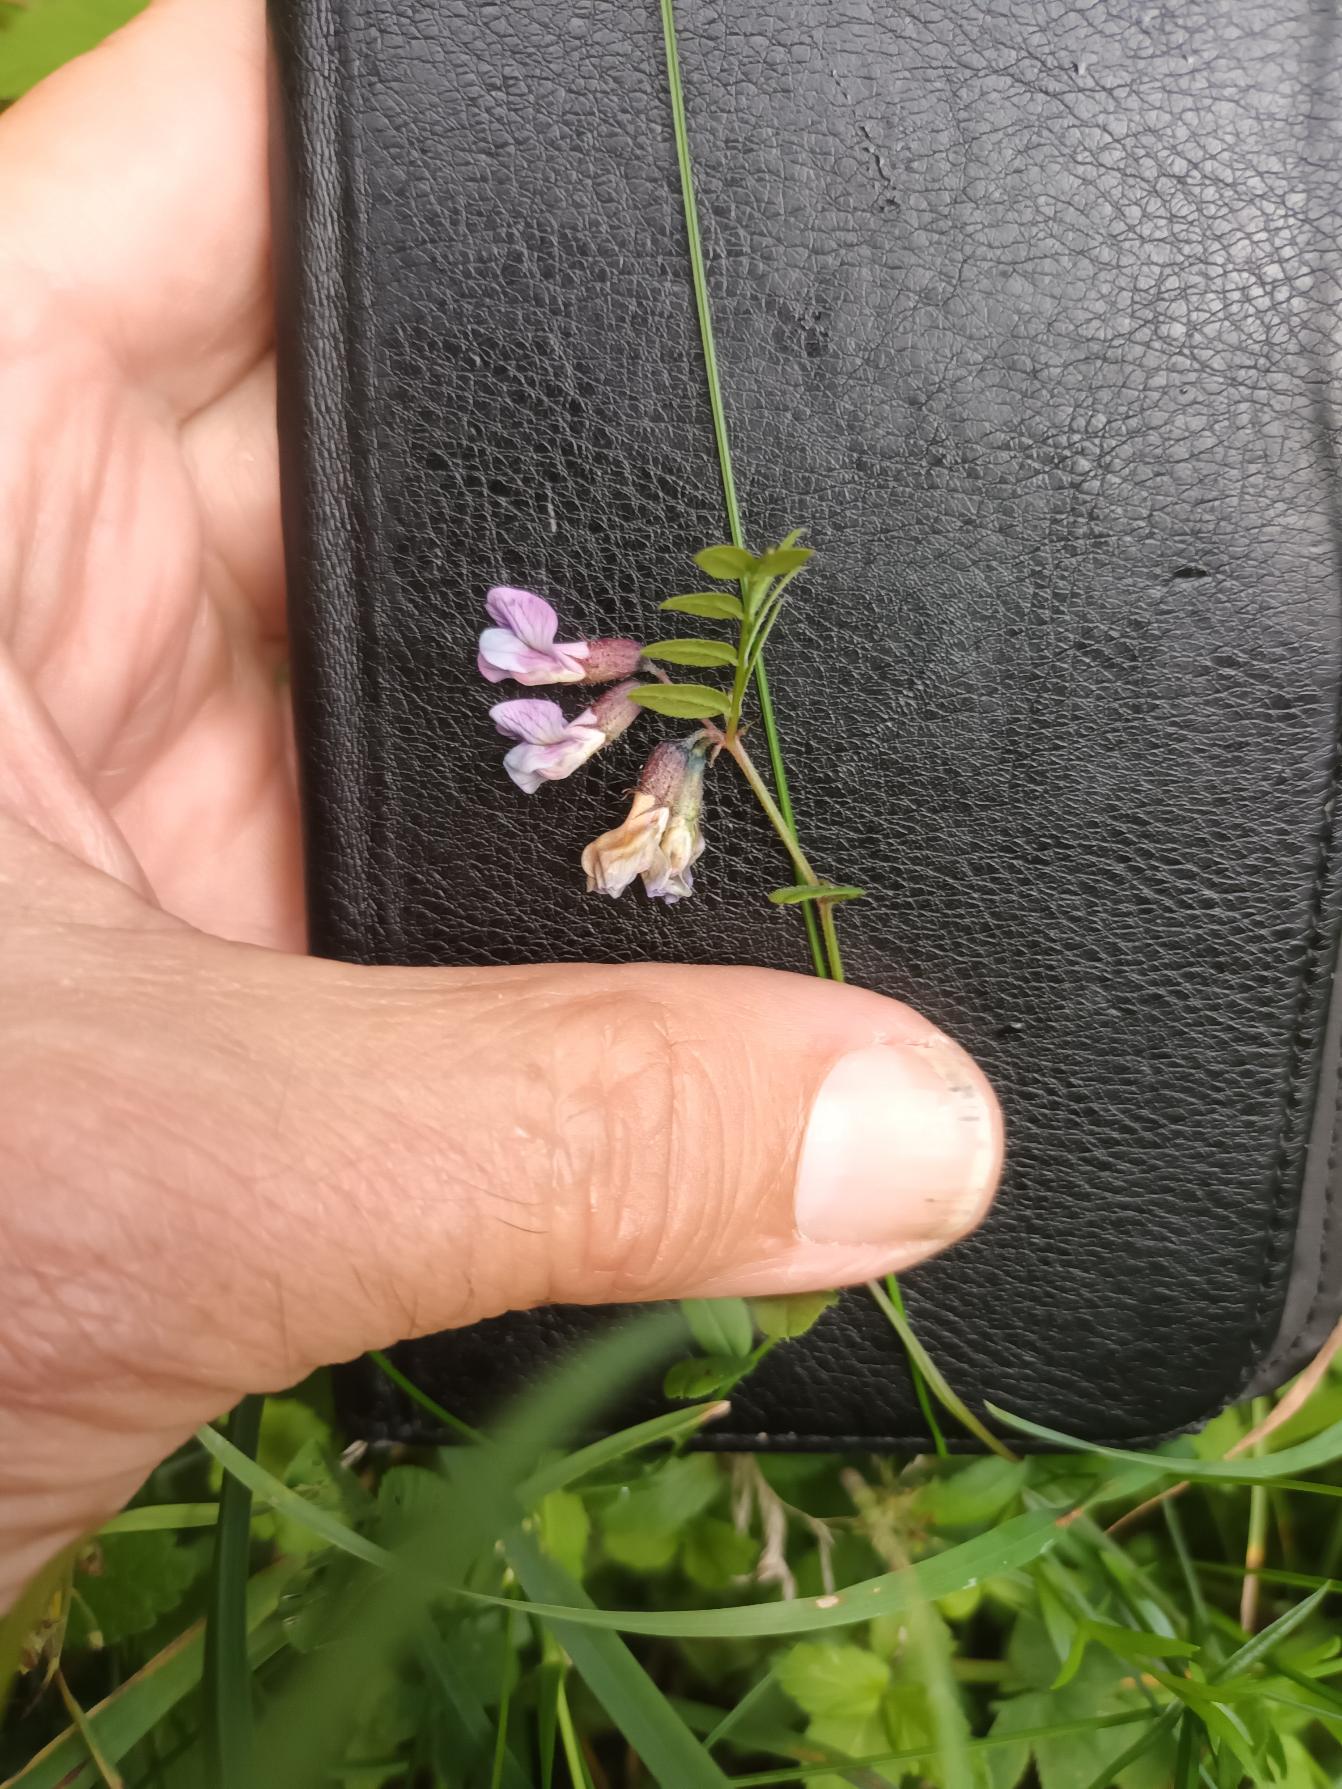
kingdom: Plantae
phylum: Tracheophyta
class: Magnoliopsida
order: Fabales
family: Fabaceae
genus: Vicia
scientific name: Vicia sepium
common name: Gærde-vikke
